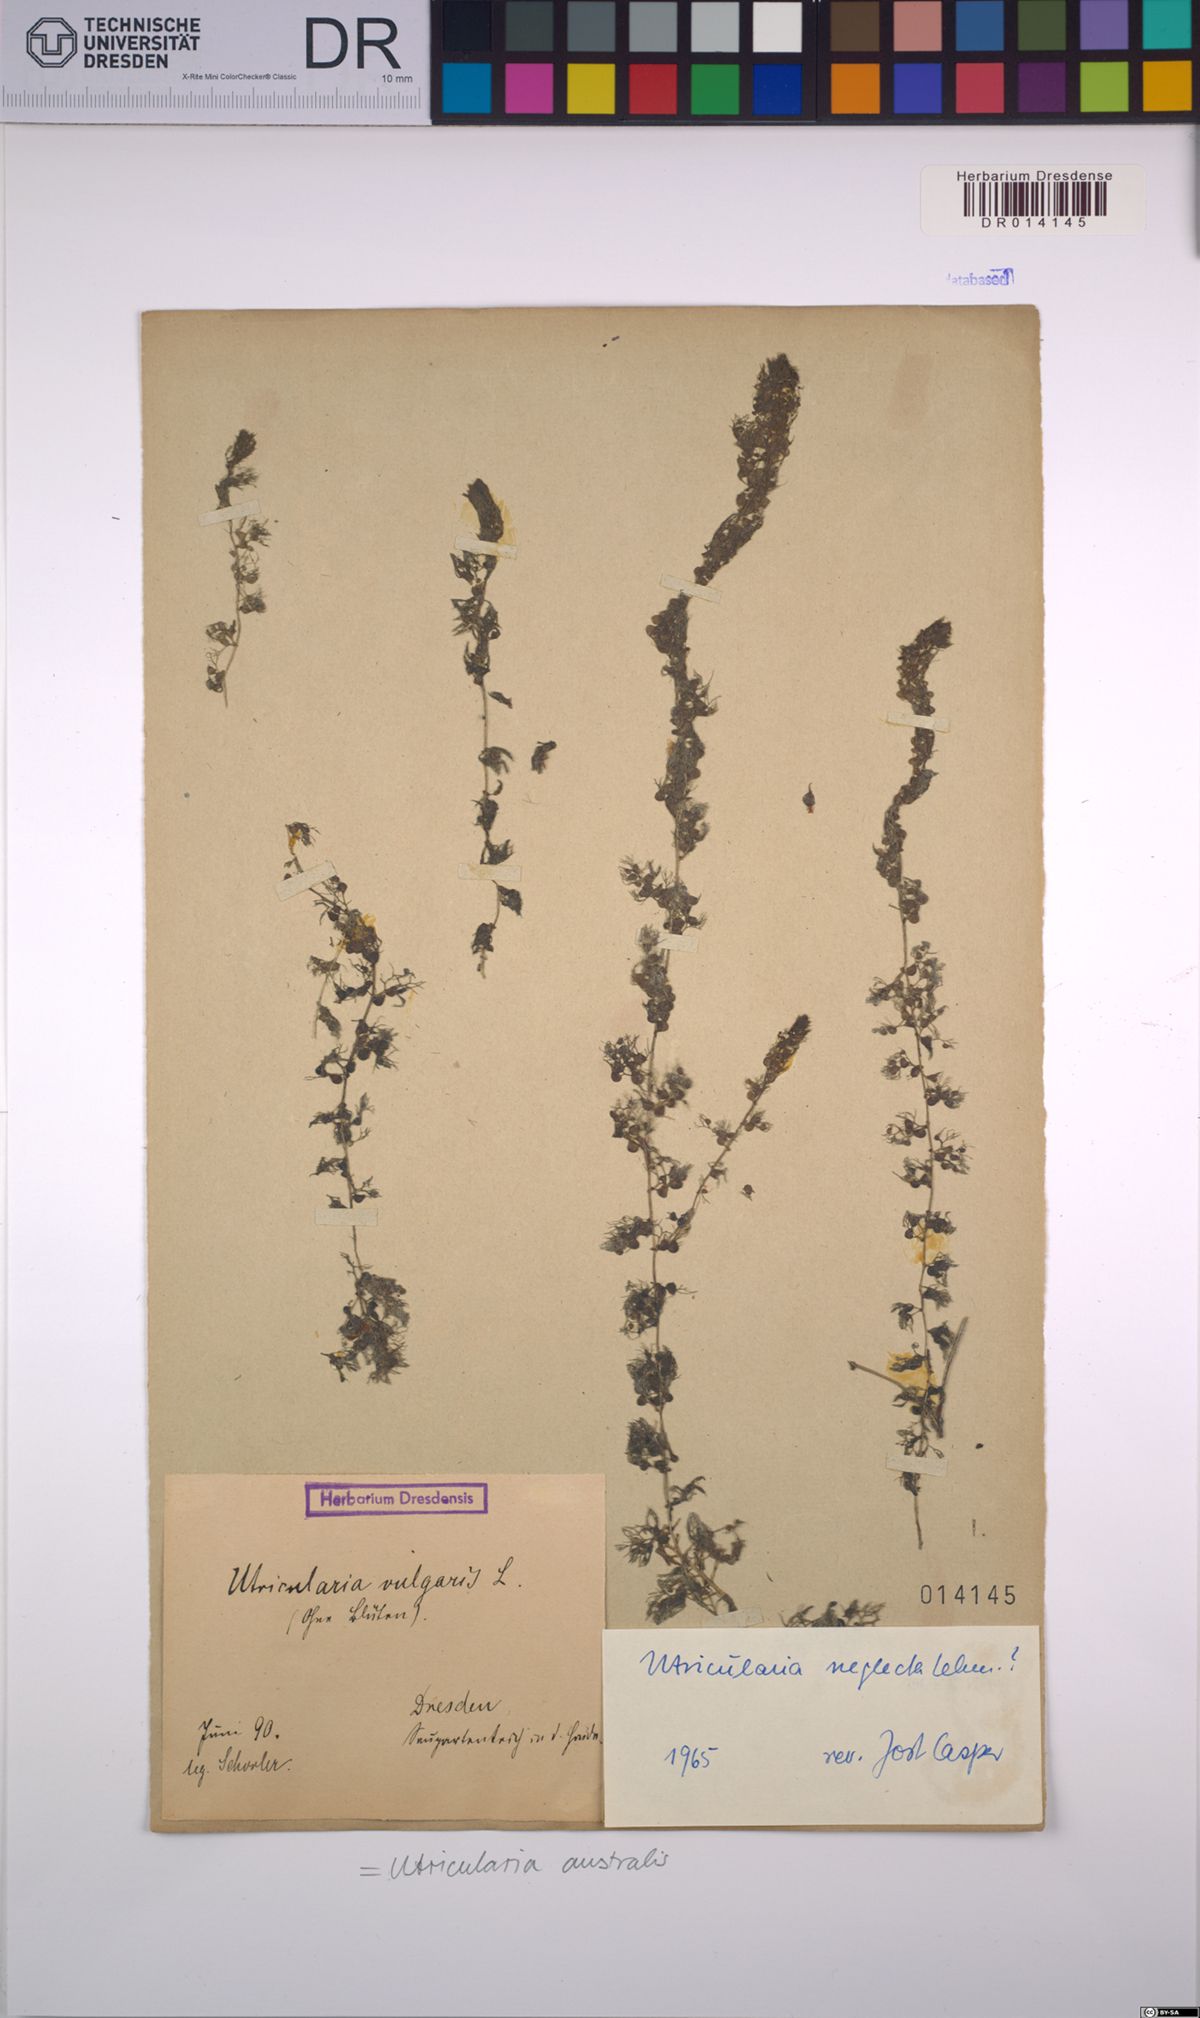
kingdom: Plantae
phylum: Tracheophyta
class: Magnoliopsida
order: Lamiales
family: Lentibulariaceae
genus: Utricularia
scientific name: Utricularia australis
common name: Bladderwort
